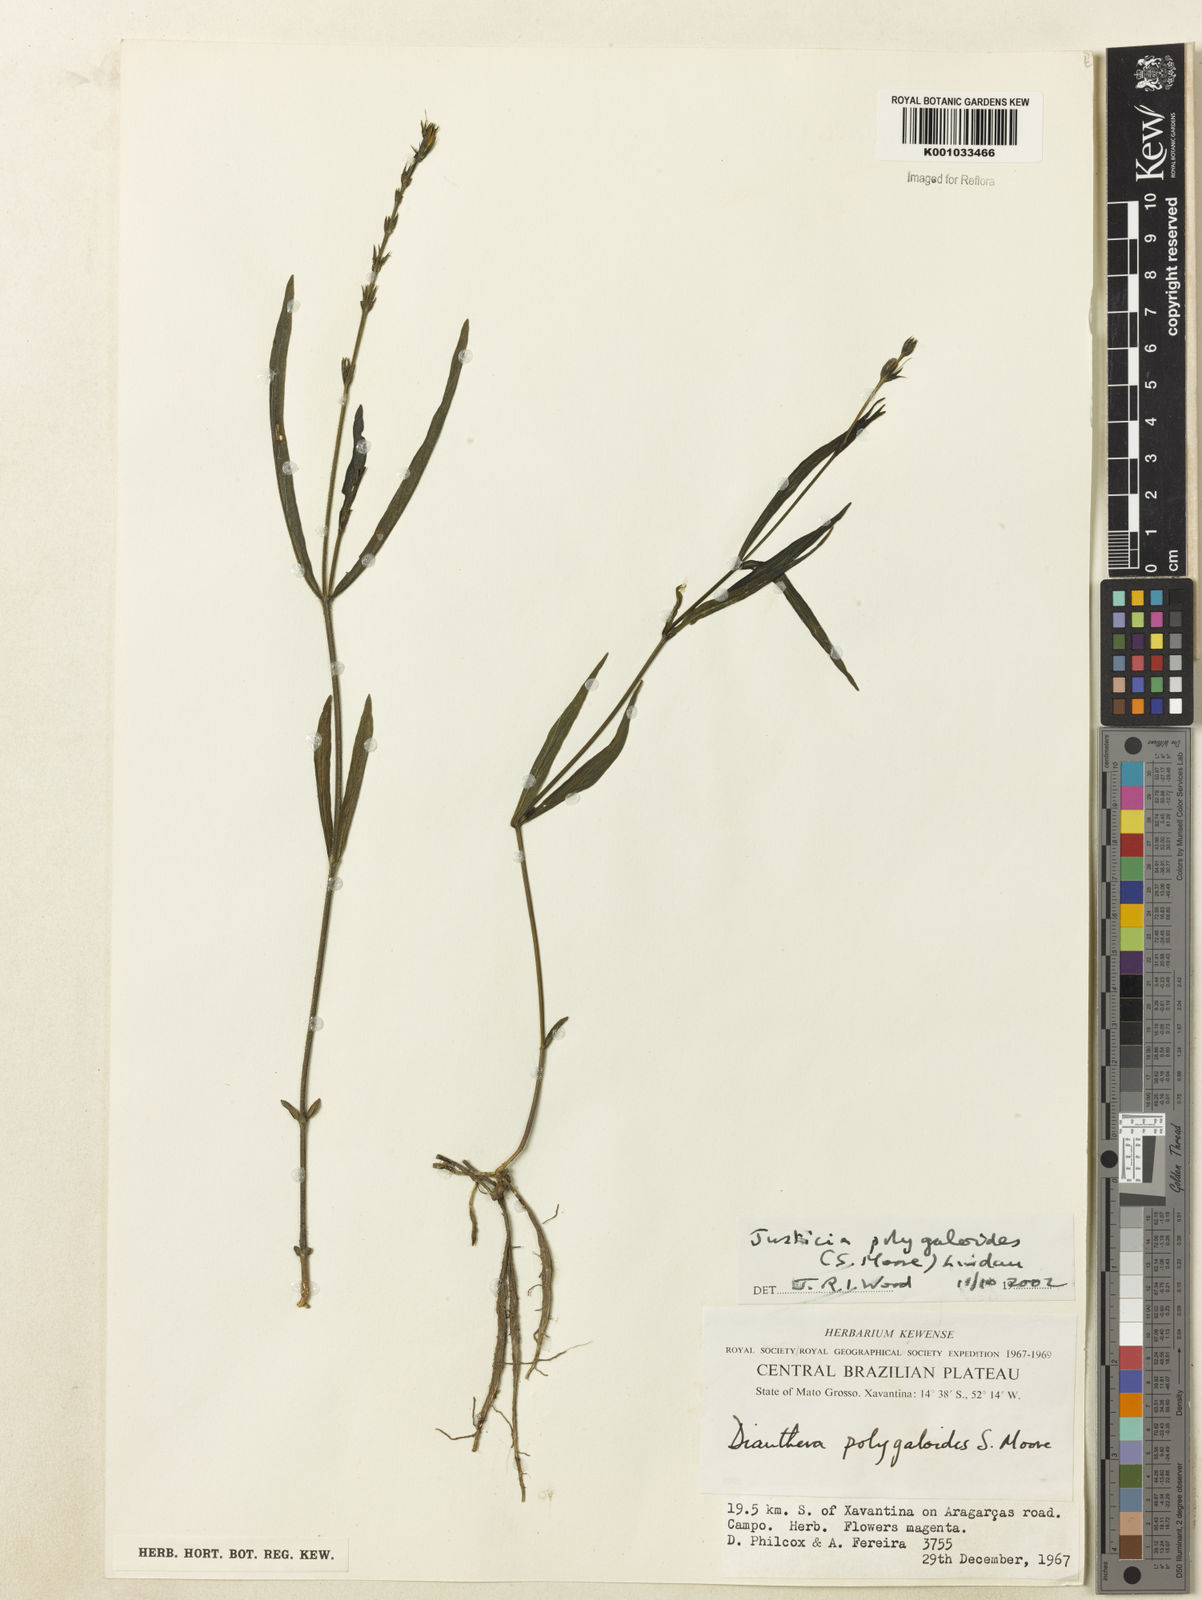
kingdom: Plantae
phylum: Tracheophyta
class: Magnoliopsida
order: Lamiales
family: Acanthaceae
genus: Dianthera
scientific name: Dianthera polygaloides
